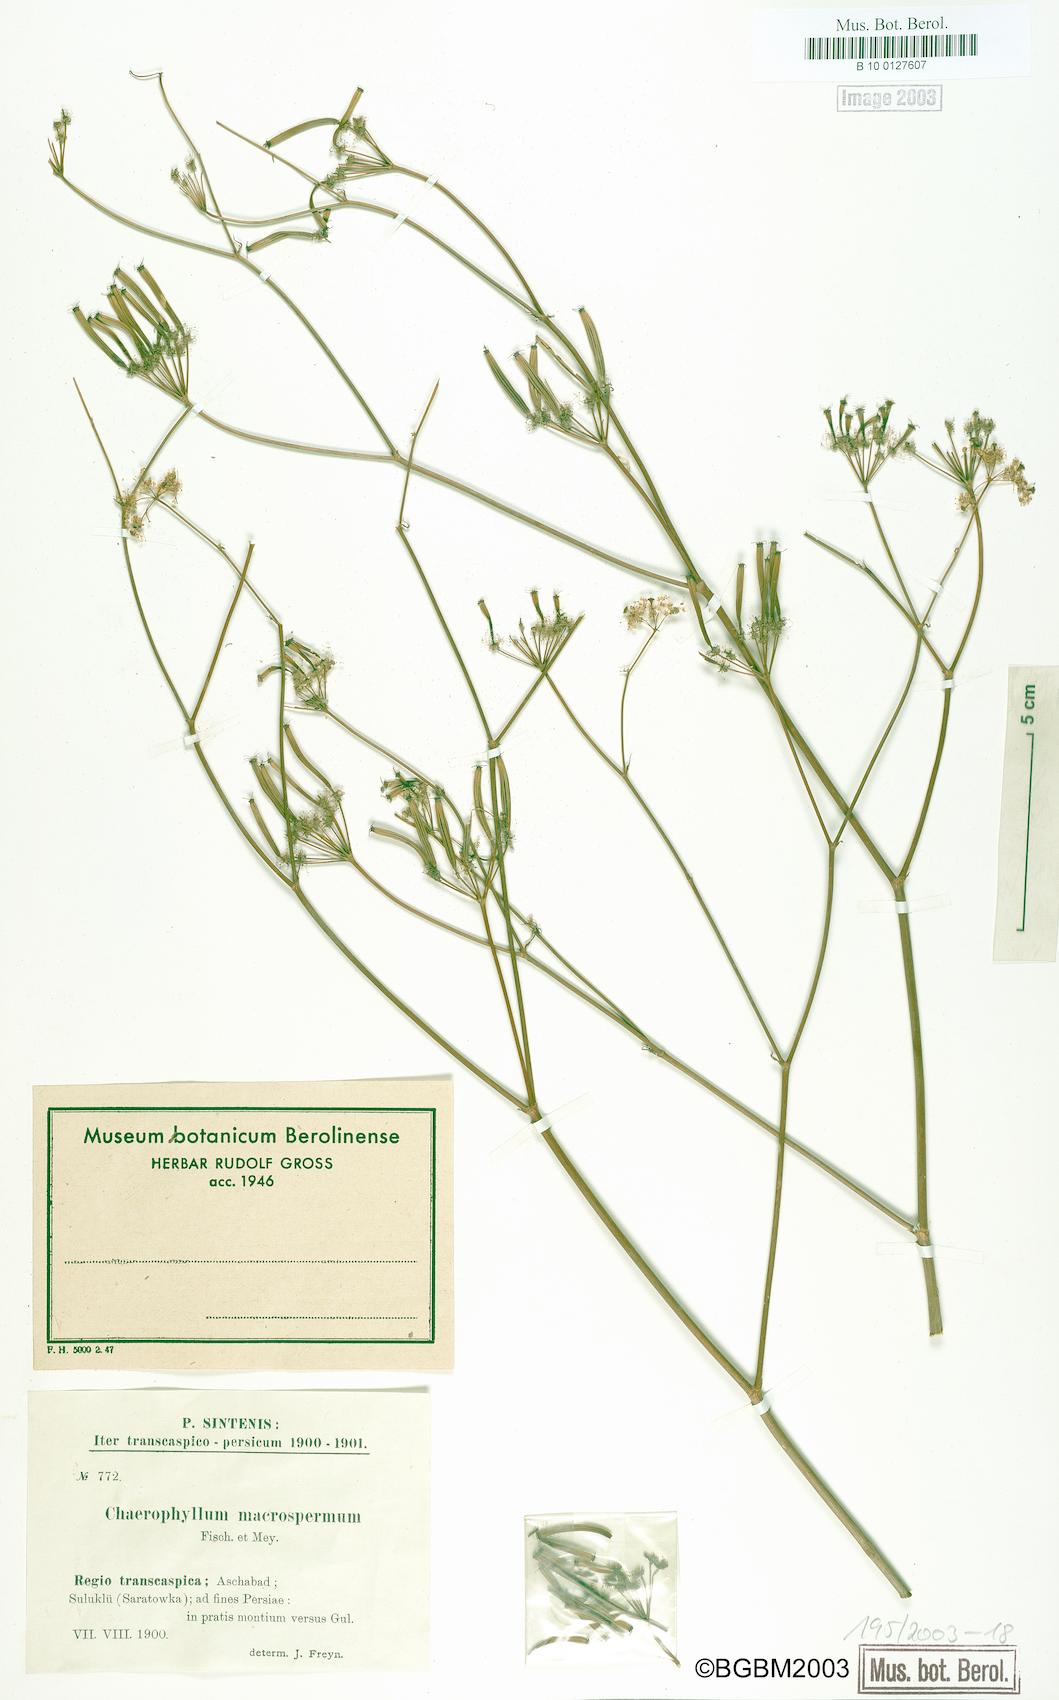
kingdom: Plantae
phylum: Tracheophyta
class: Magnoliopsida
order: Apiales
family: Apiaceae
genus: Chaerophyllum
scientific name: Chaerophyllum macrospermum
